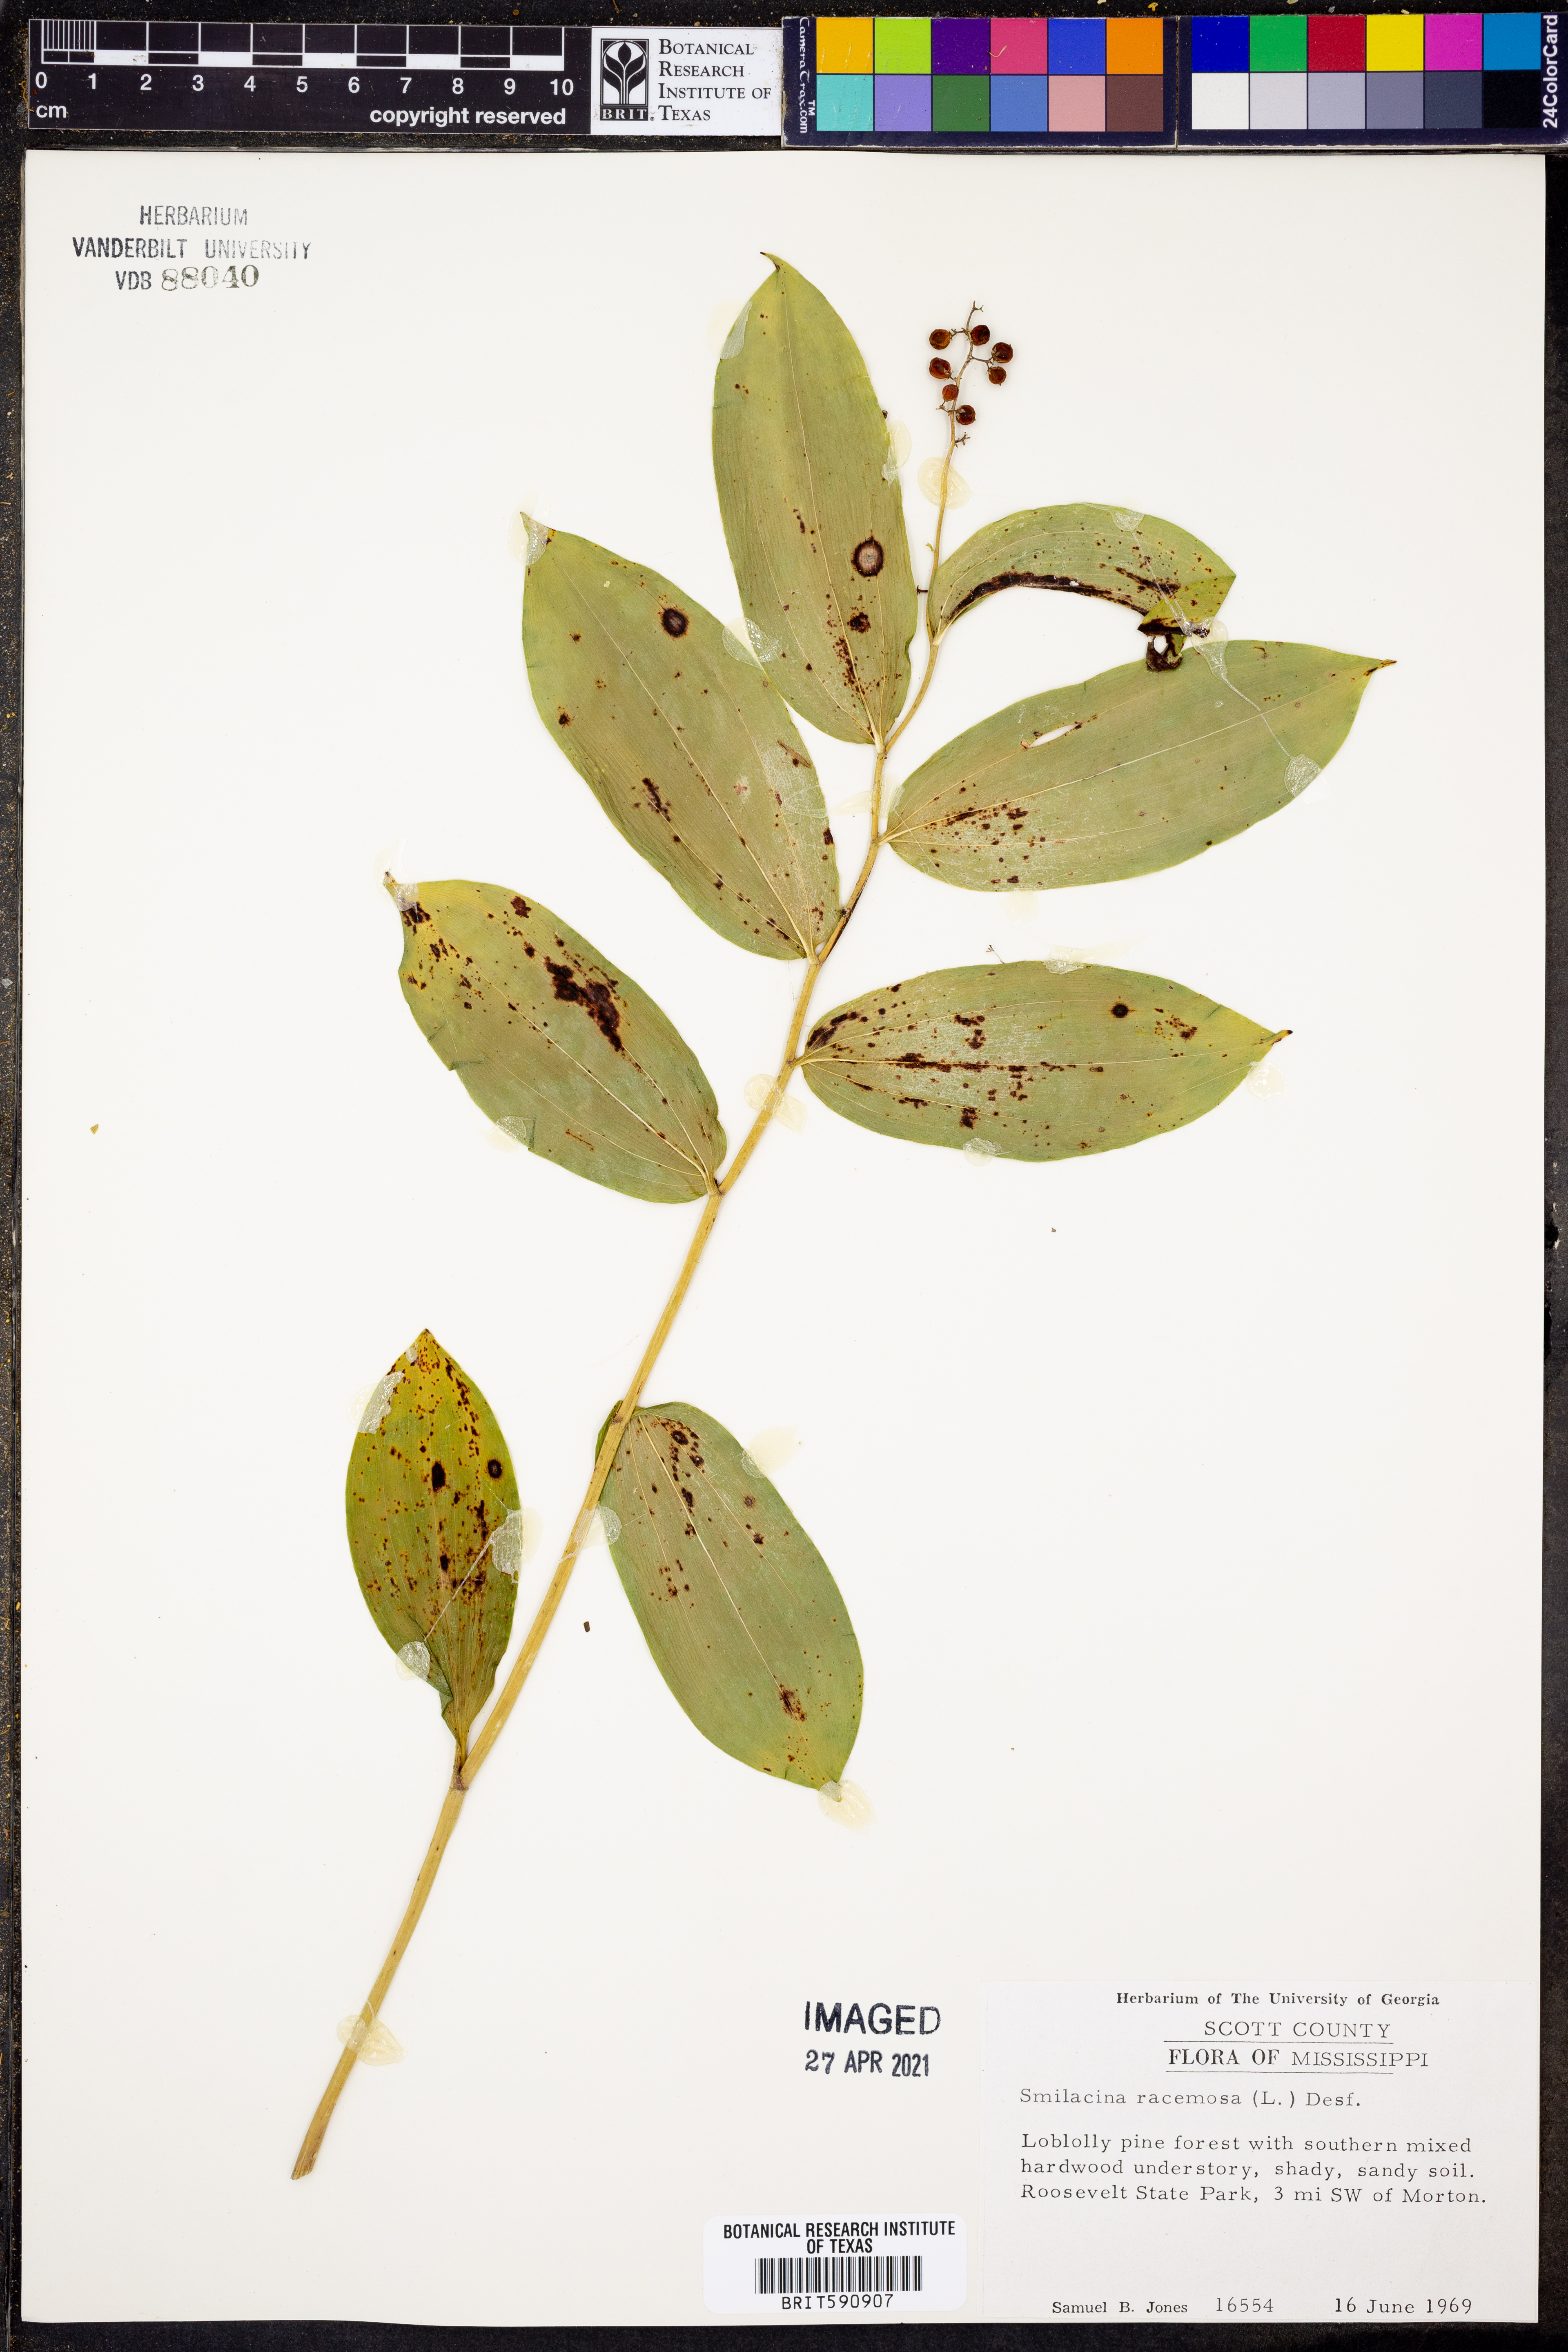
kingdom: Plantae
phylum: Tracheophyta
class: Liliopsida
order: Asparagales
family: Asparagaceae
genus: Maianthemum
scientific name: Maianthemum racemosum
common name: False spikenard
